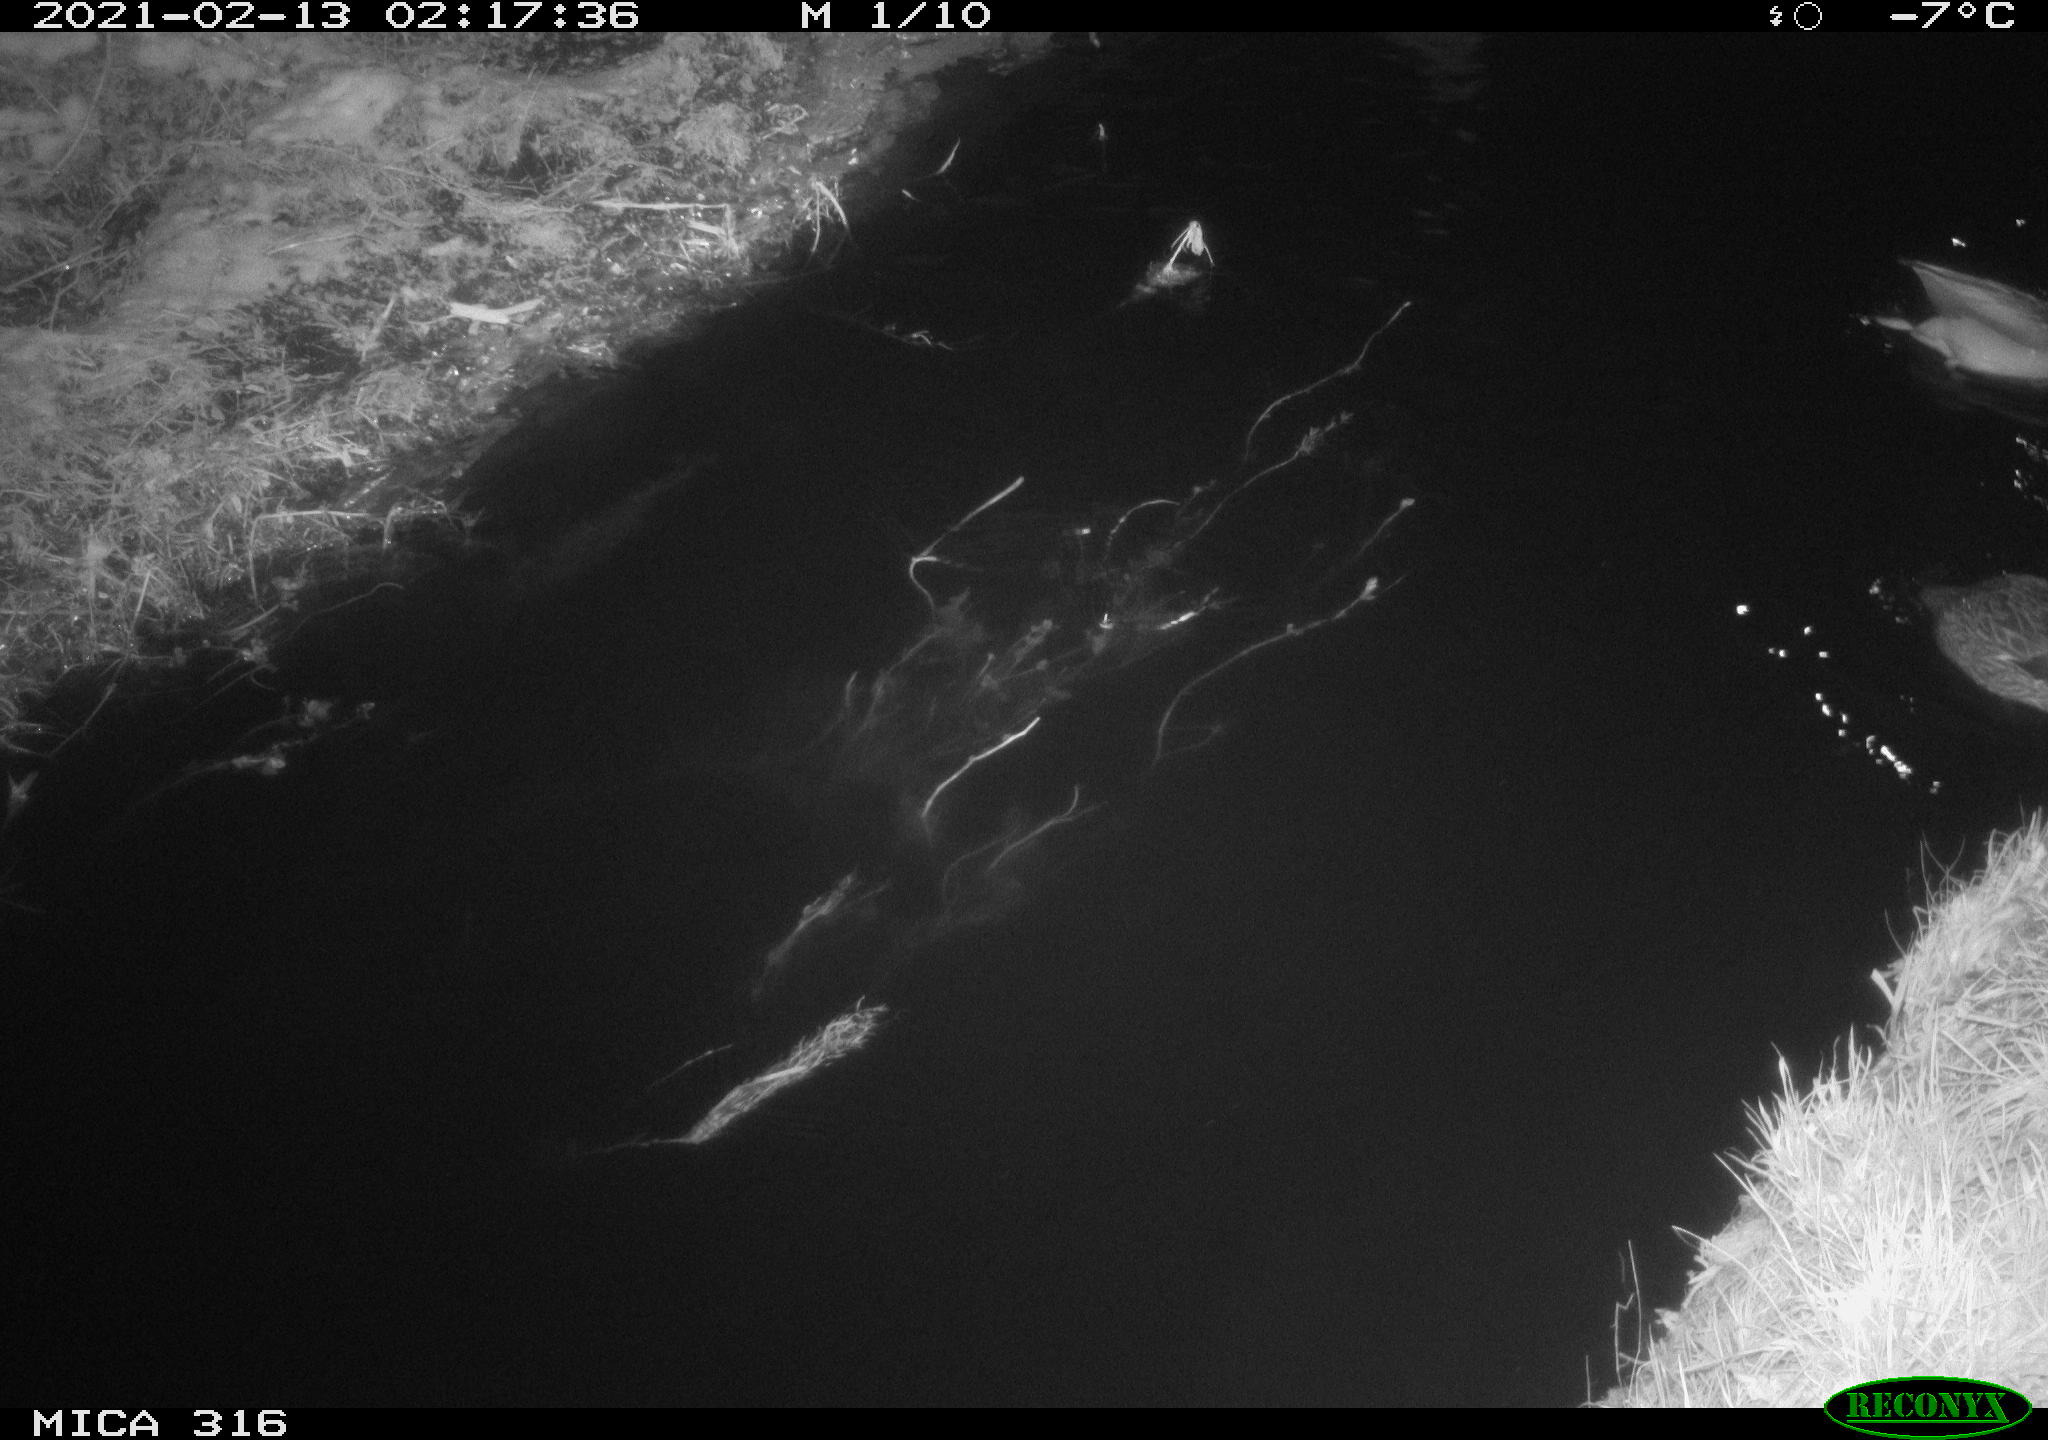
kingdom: Animalia
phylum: Chordata
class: Aves
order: Anseriformes
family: Anatidae
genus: Anas
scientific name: Anas platyrhynchos
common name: Mallard
